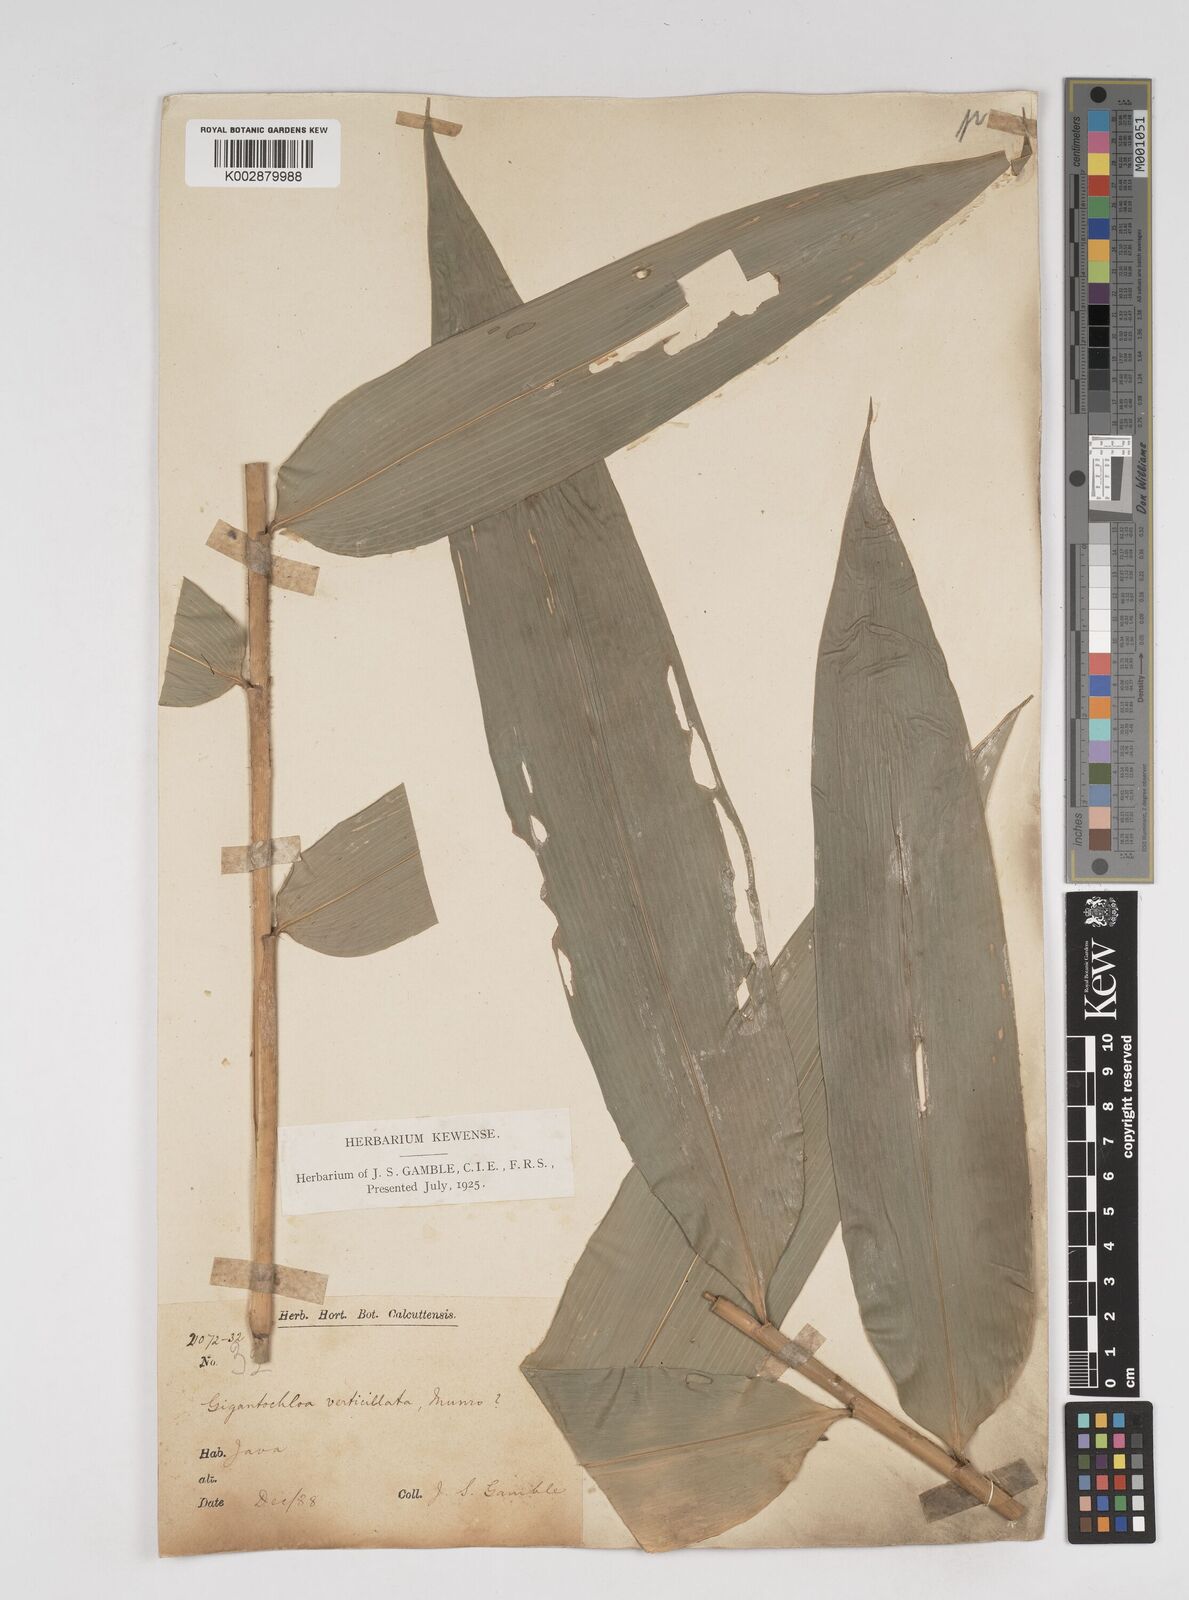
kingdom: Plantae
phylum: Tracheophyta
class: Liliopsida
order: Poales
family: Poaceae
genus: Gigantochloa
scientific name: Gigantochloa verticillata
